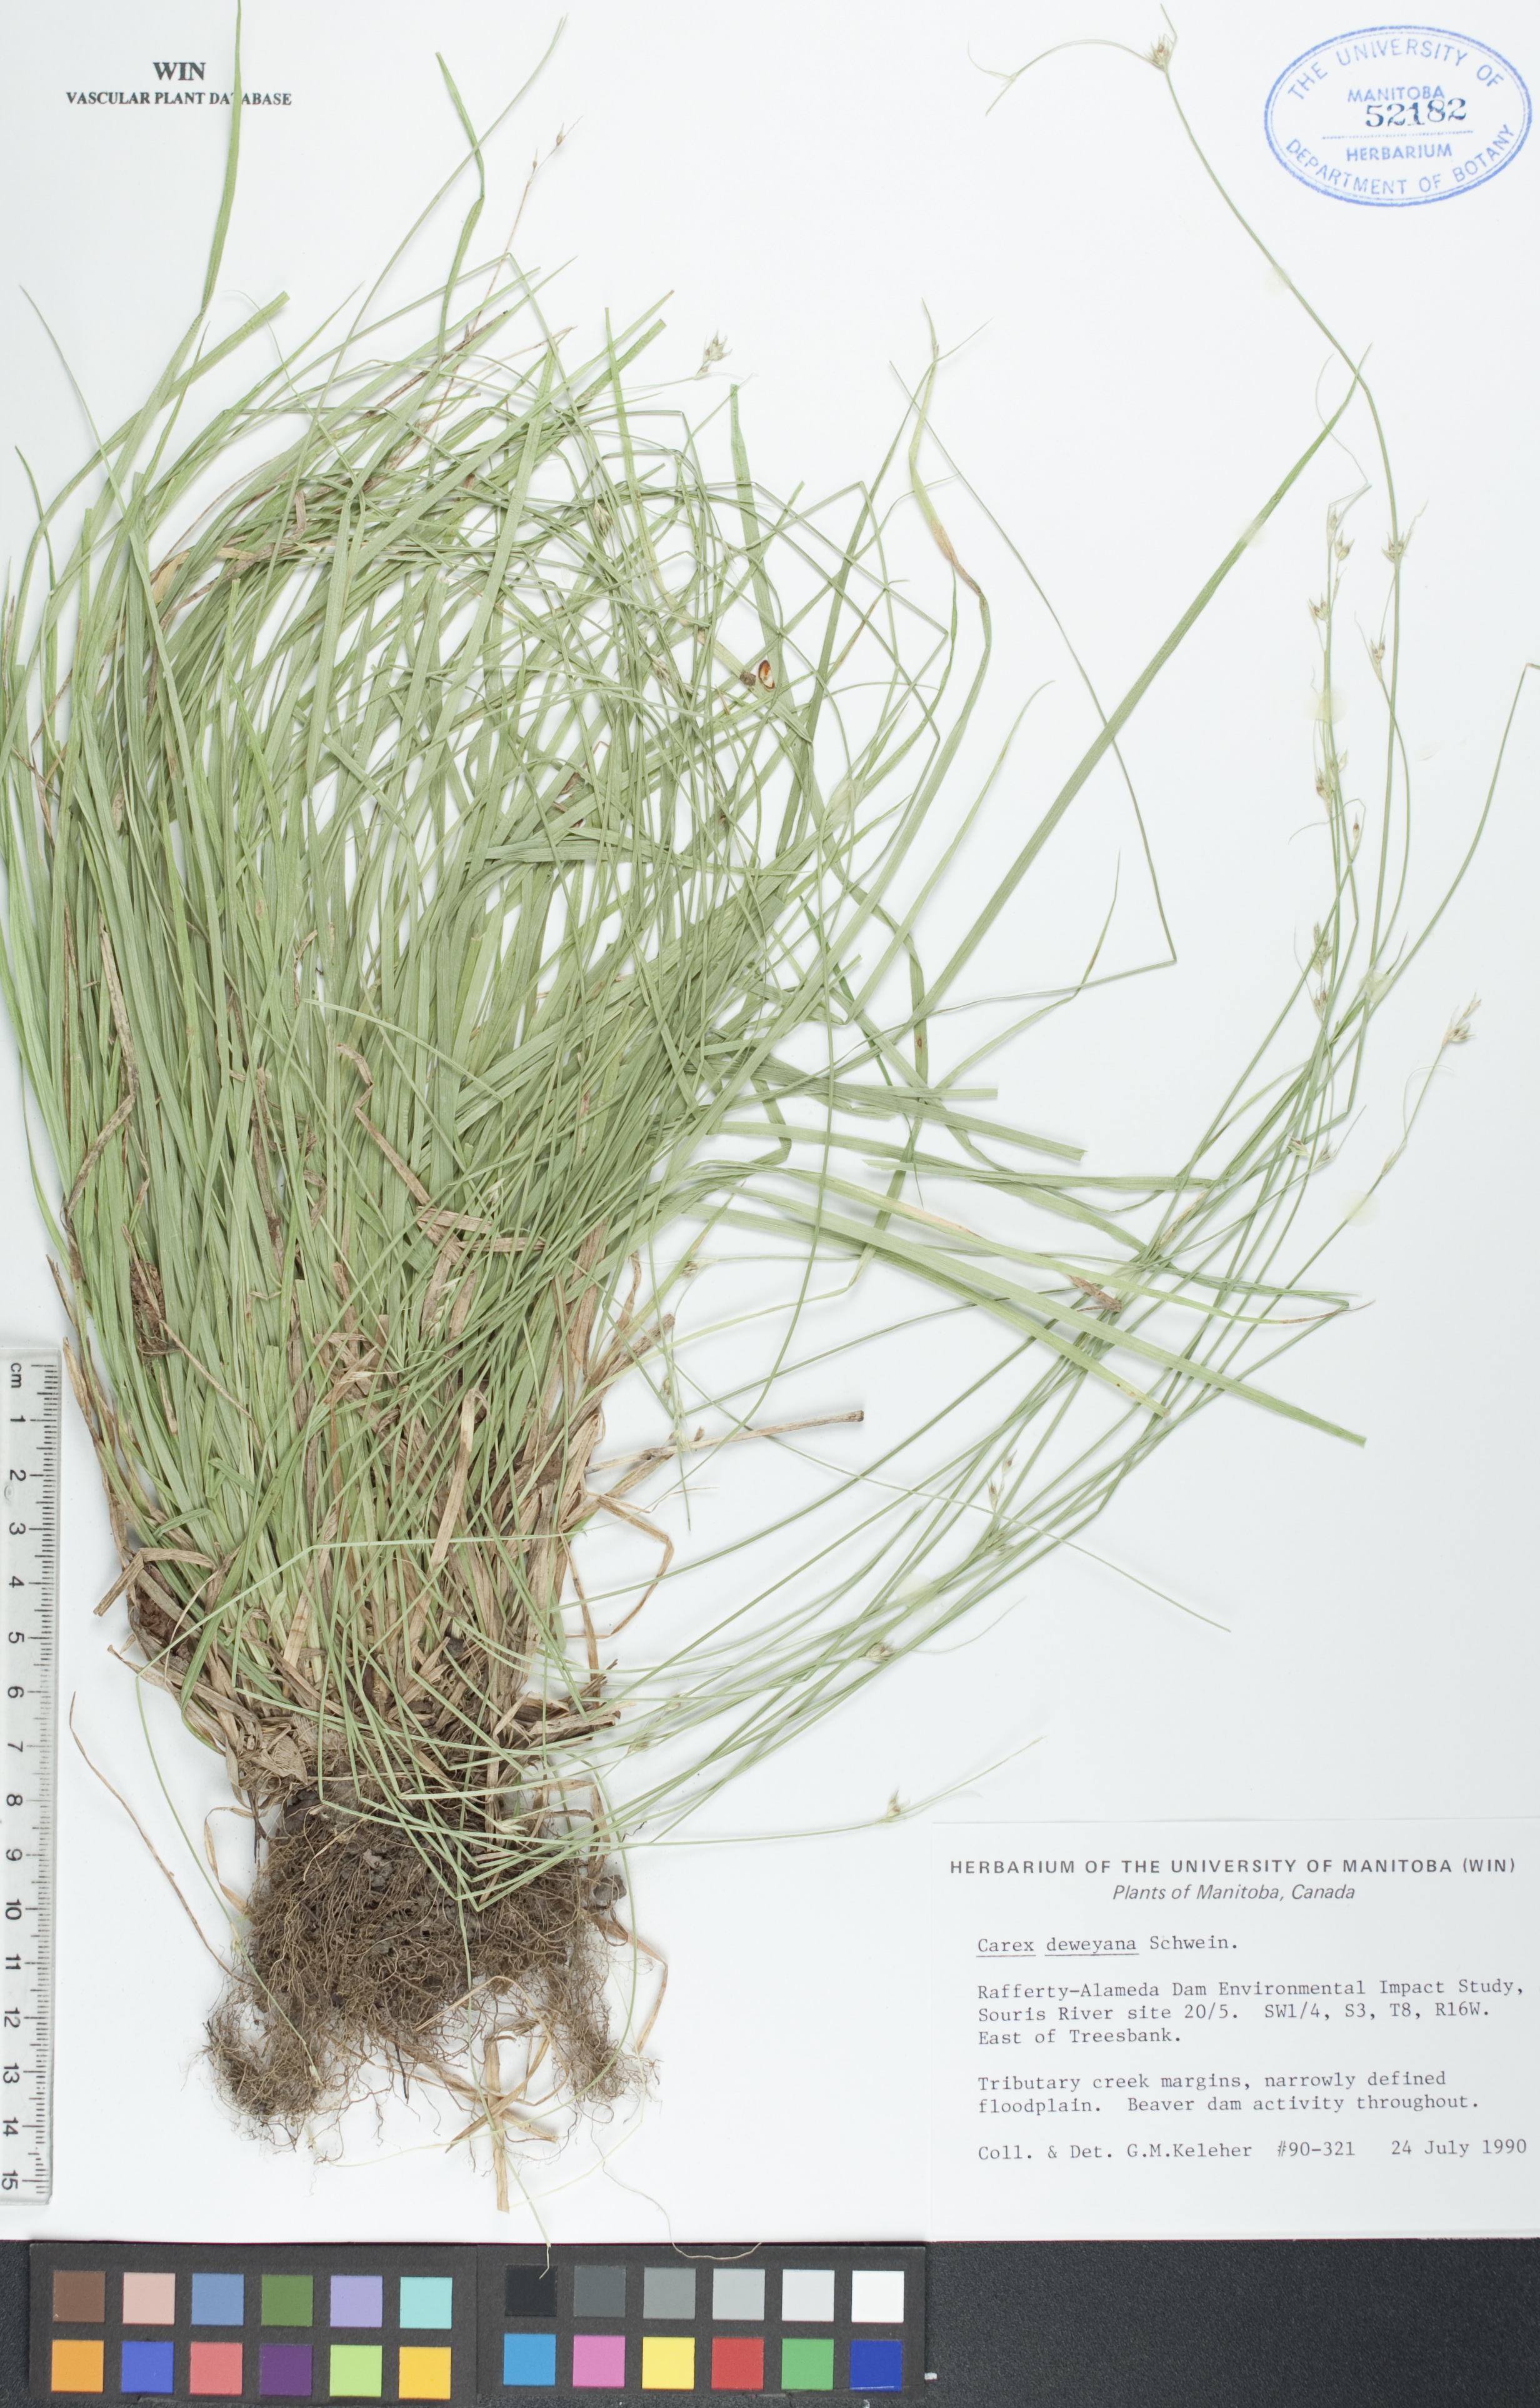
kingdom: Plantae
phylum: Tracheophyta
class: Liliopsida
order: Poales
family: Cyperaceae
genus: Carex
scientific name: Carex deweyana
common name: Dewey's sedge
